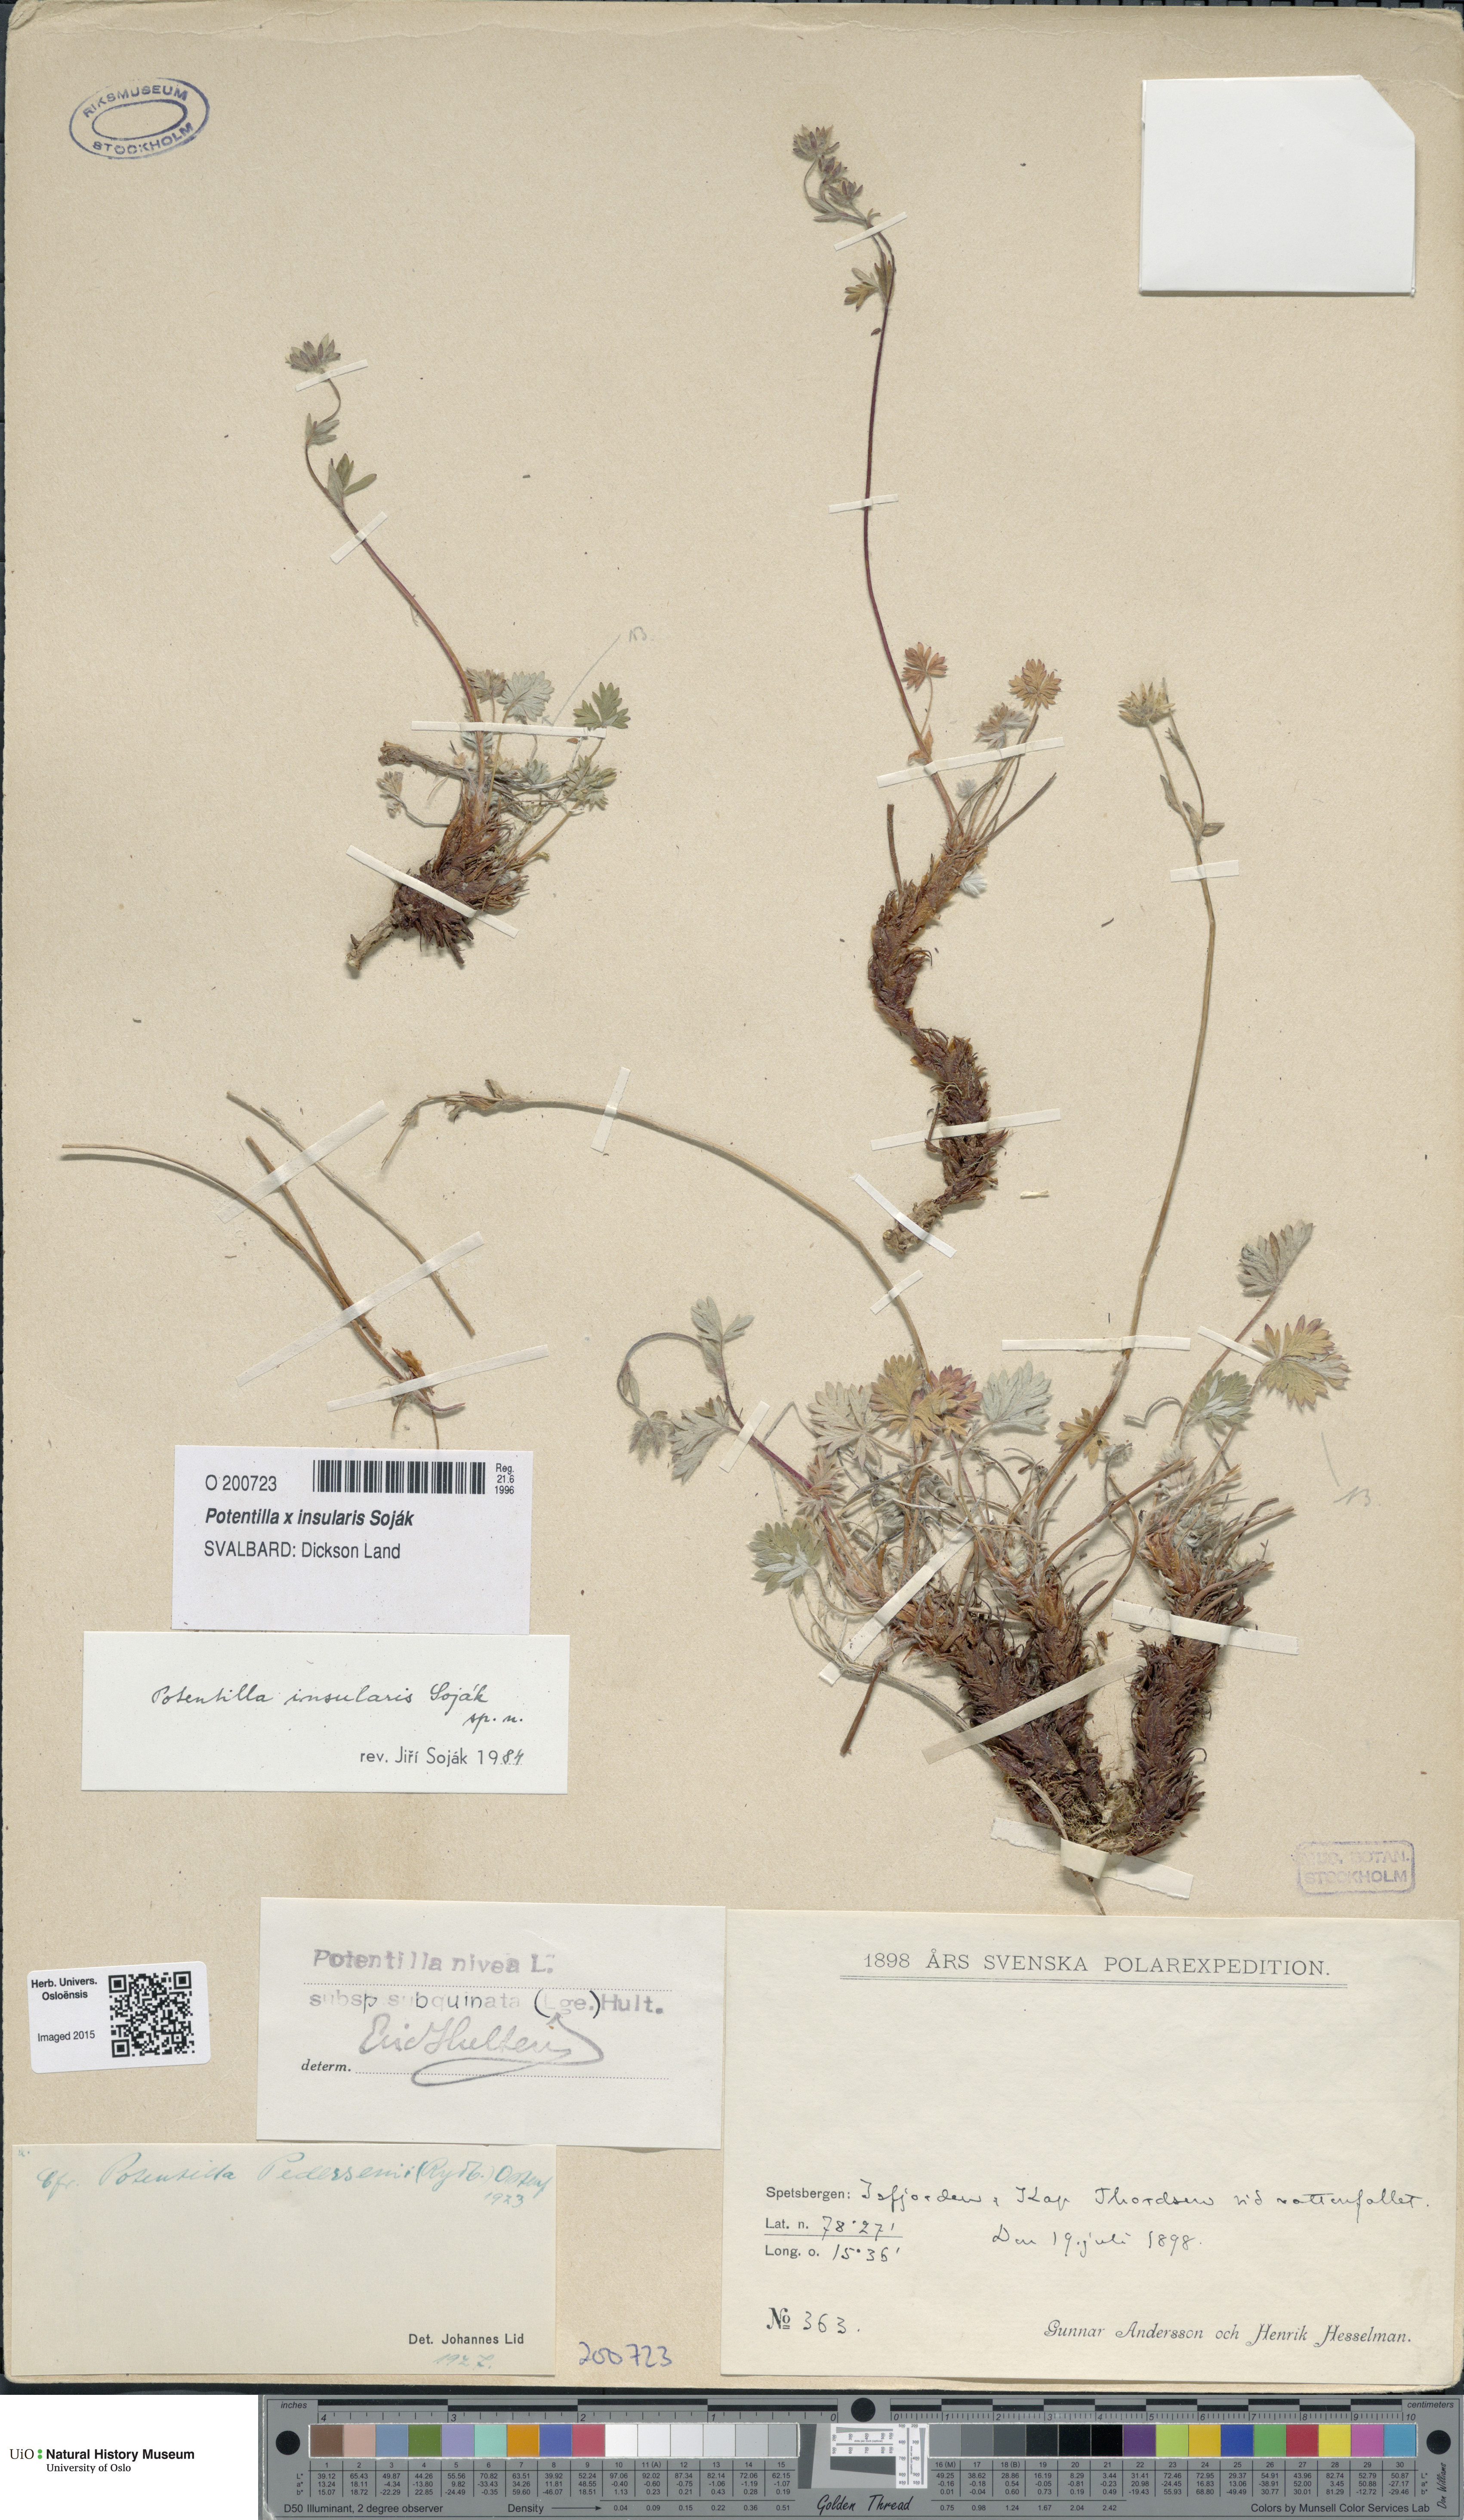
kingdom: Plantae
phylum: Tracheophyta
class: Magnoliopsida
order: Rosales
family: Rosaceae
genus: Potentilla
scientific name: Potentilla insularis
